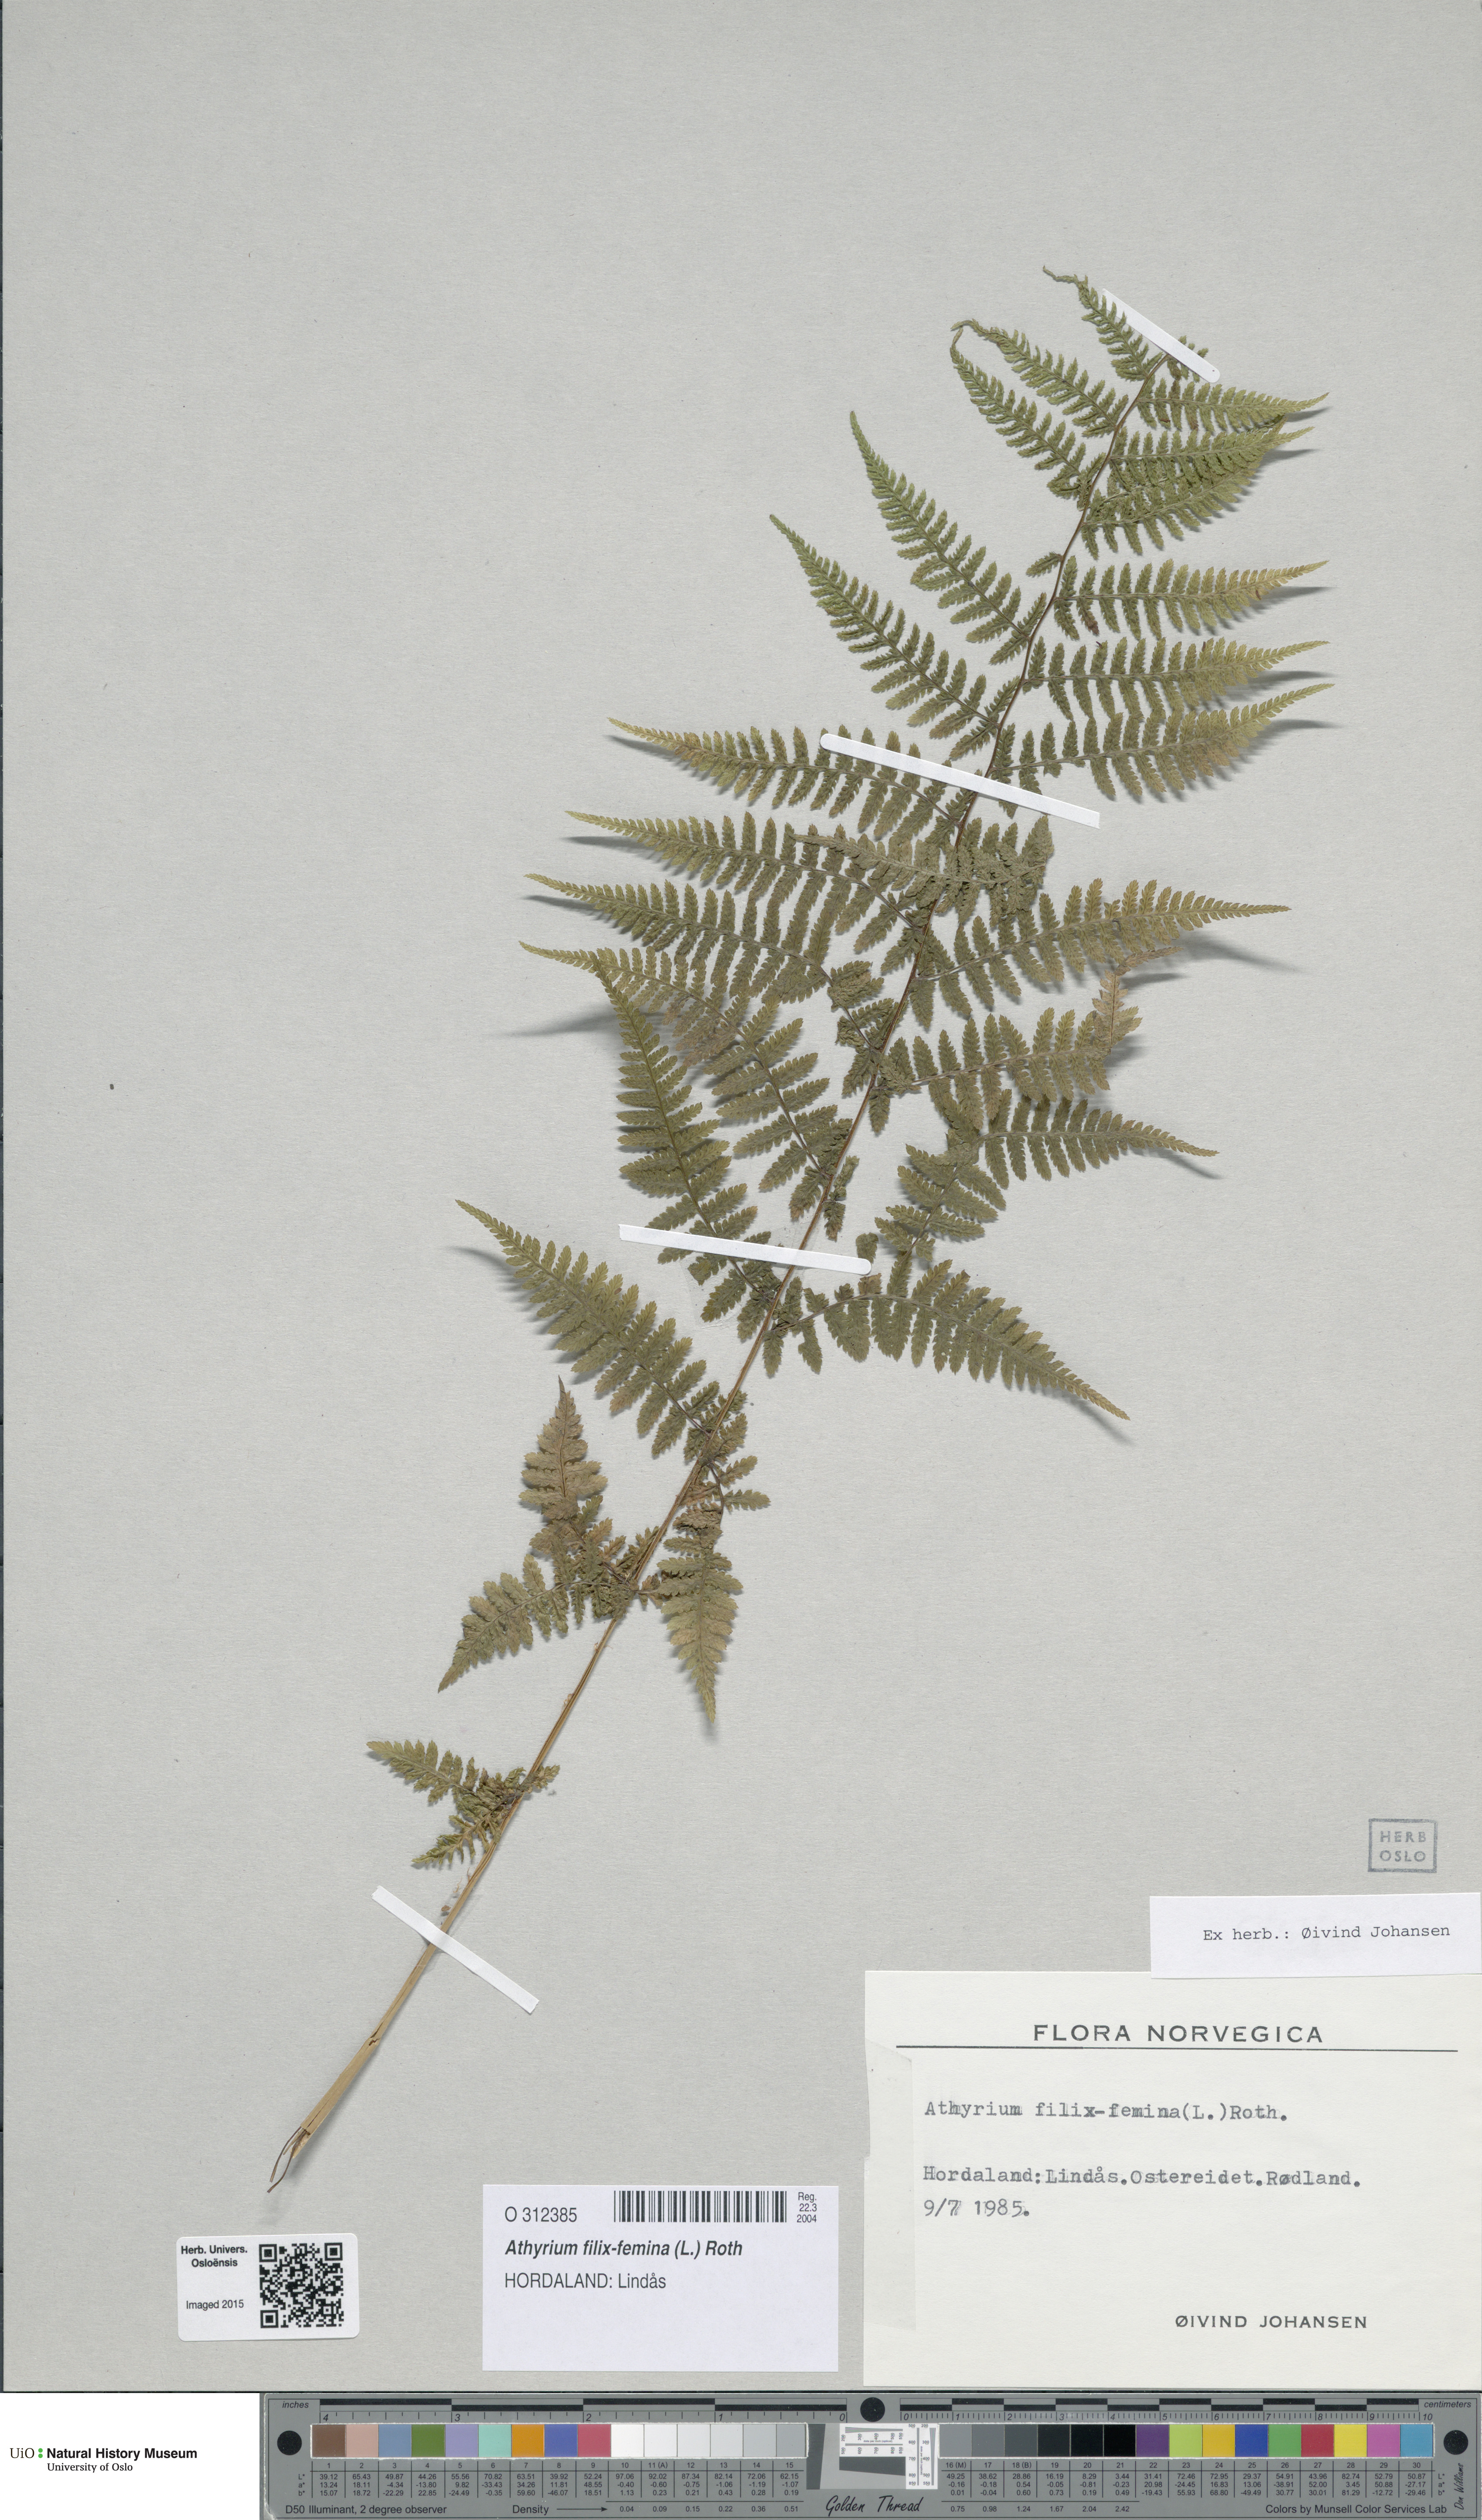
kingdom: Plantae
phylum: Tracheophyta
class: Polypodiopsida
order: Polypodiales
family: Athyriaceae
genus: Athyrium
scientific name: Athyrium filix-femina
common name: Lady fern
